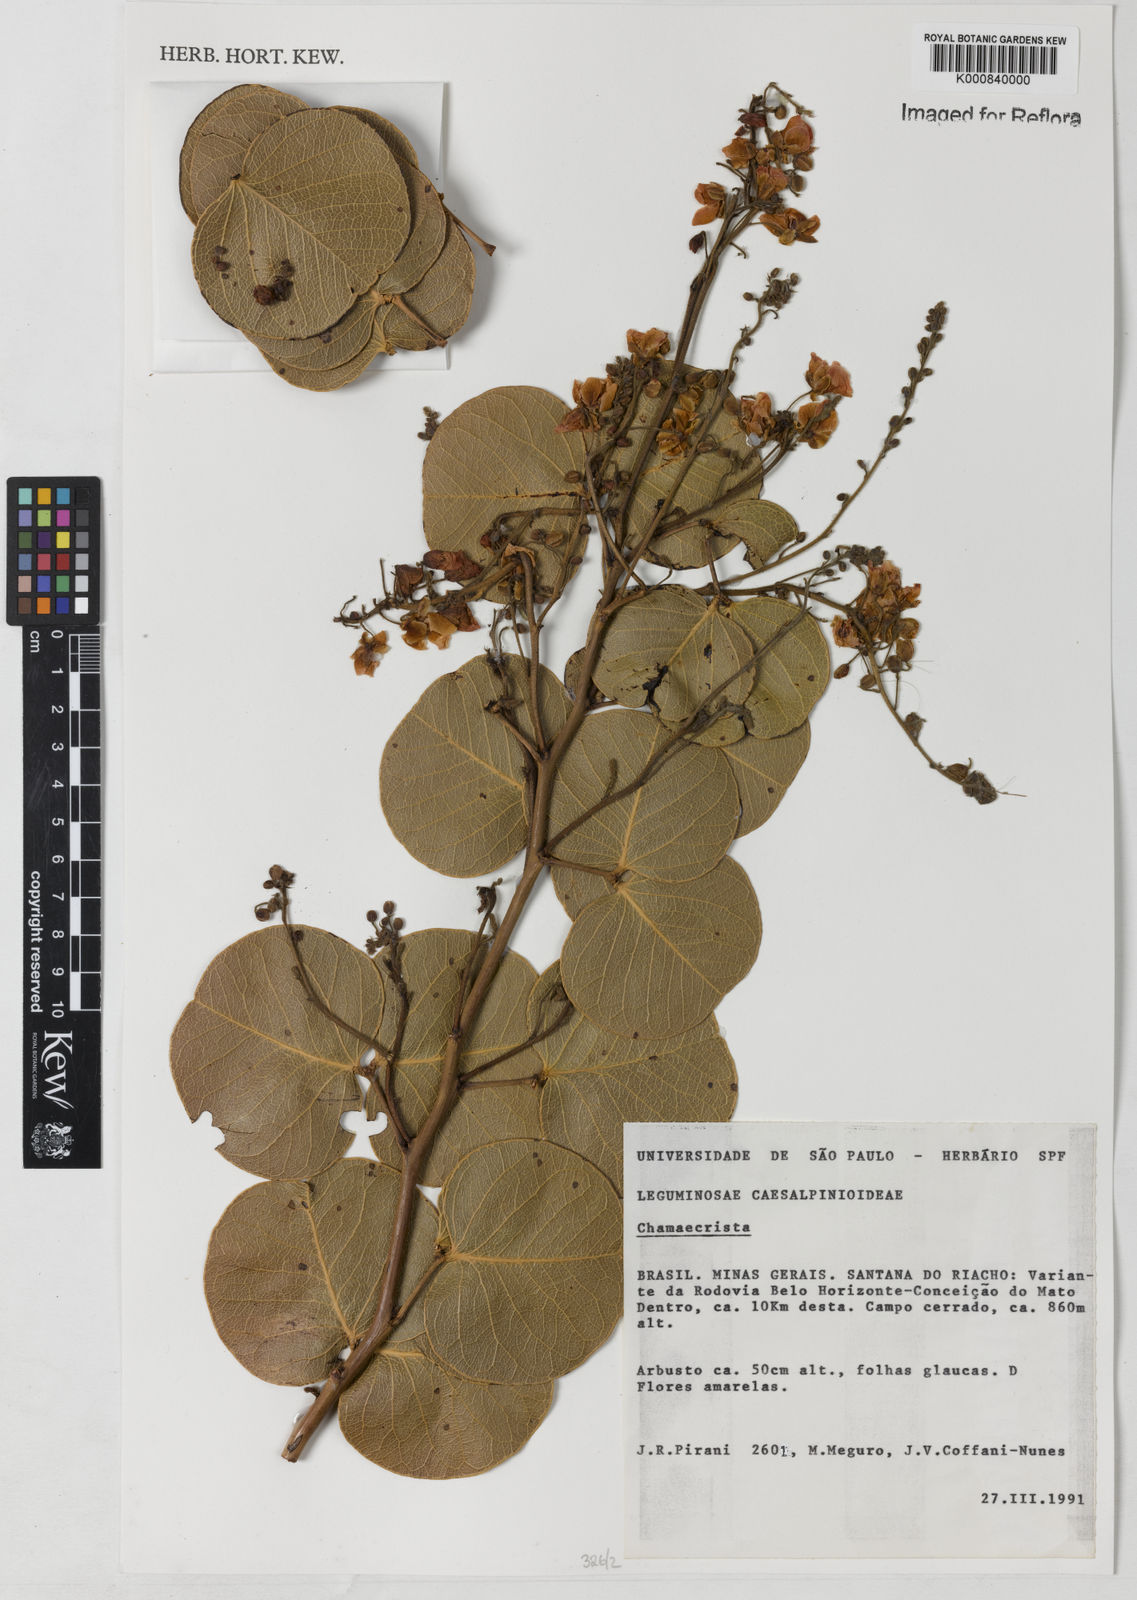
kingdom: Plantae
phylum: Tracheophyta
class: Magnoliopsida
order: Fabales
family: Fabaceae
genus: Chamaecrista
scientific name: Chamaecrista cotinifolia
